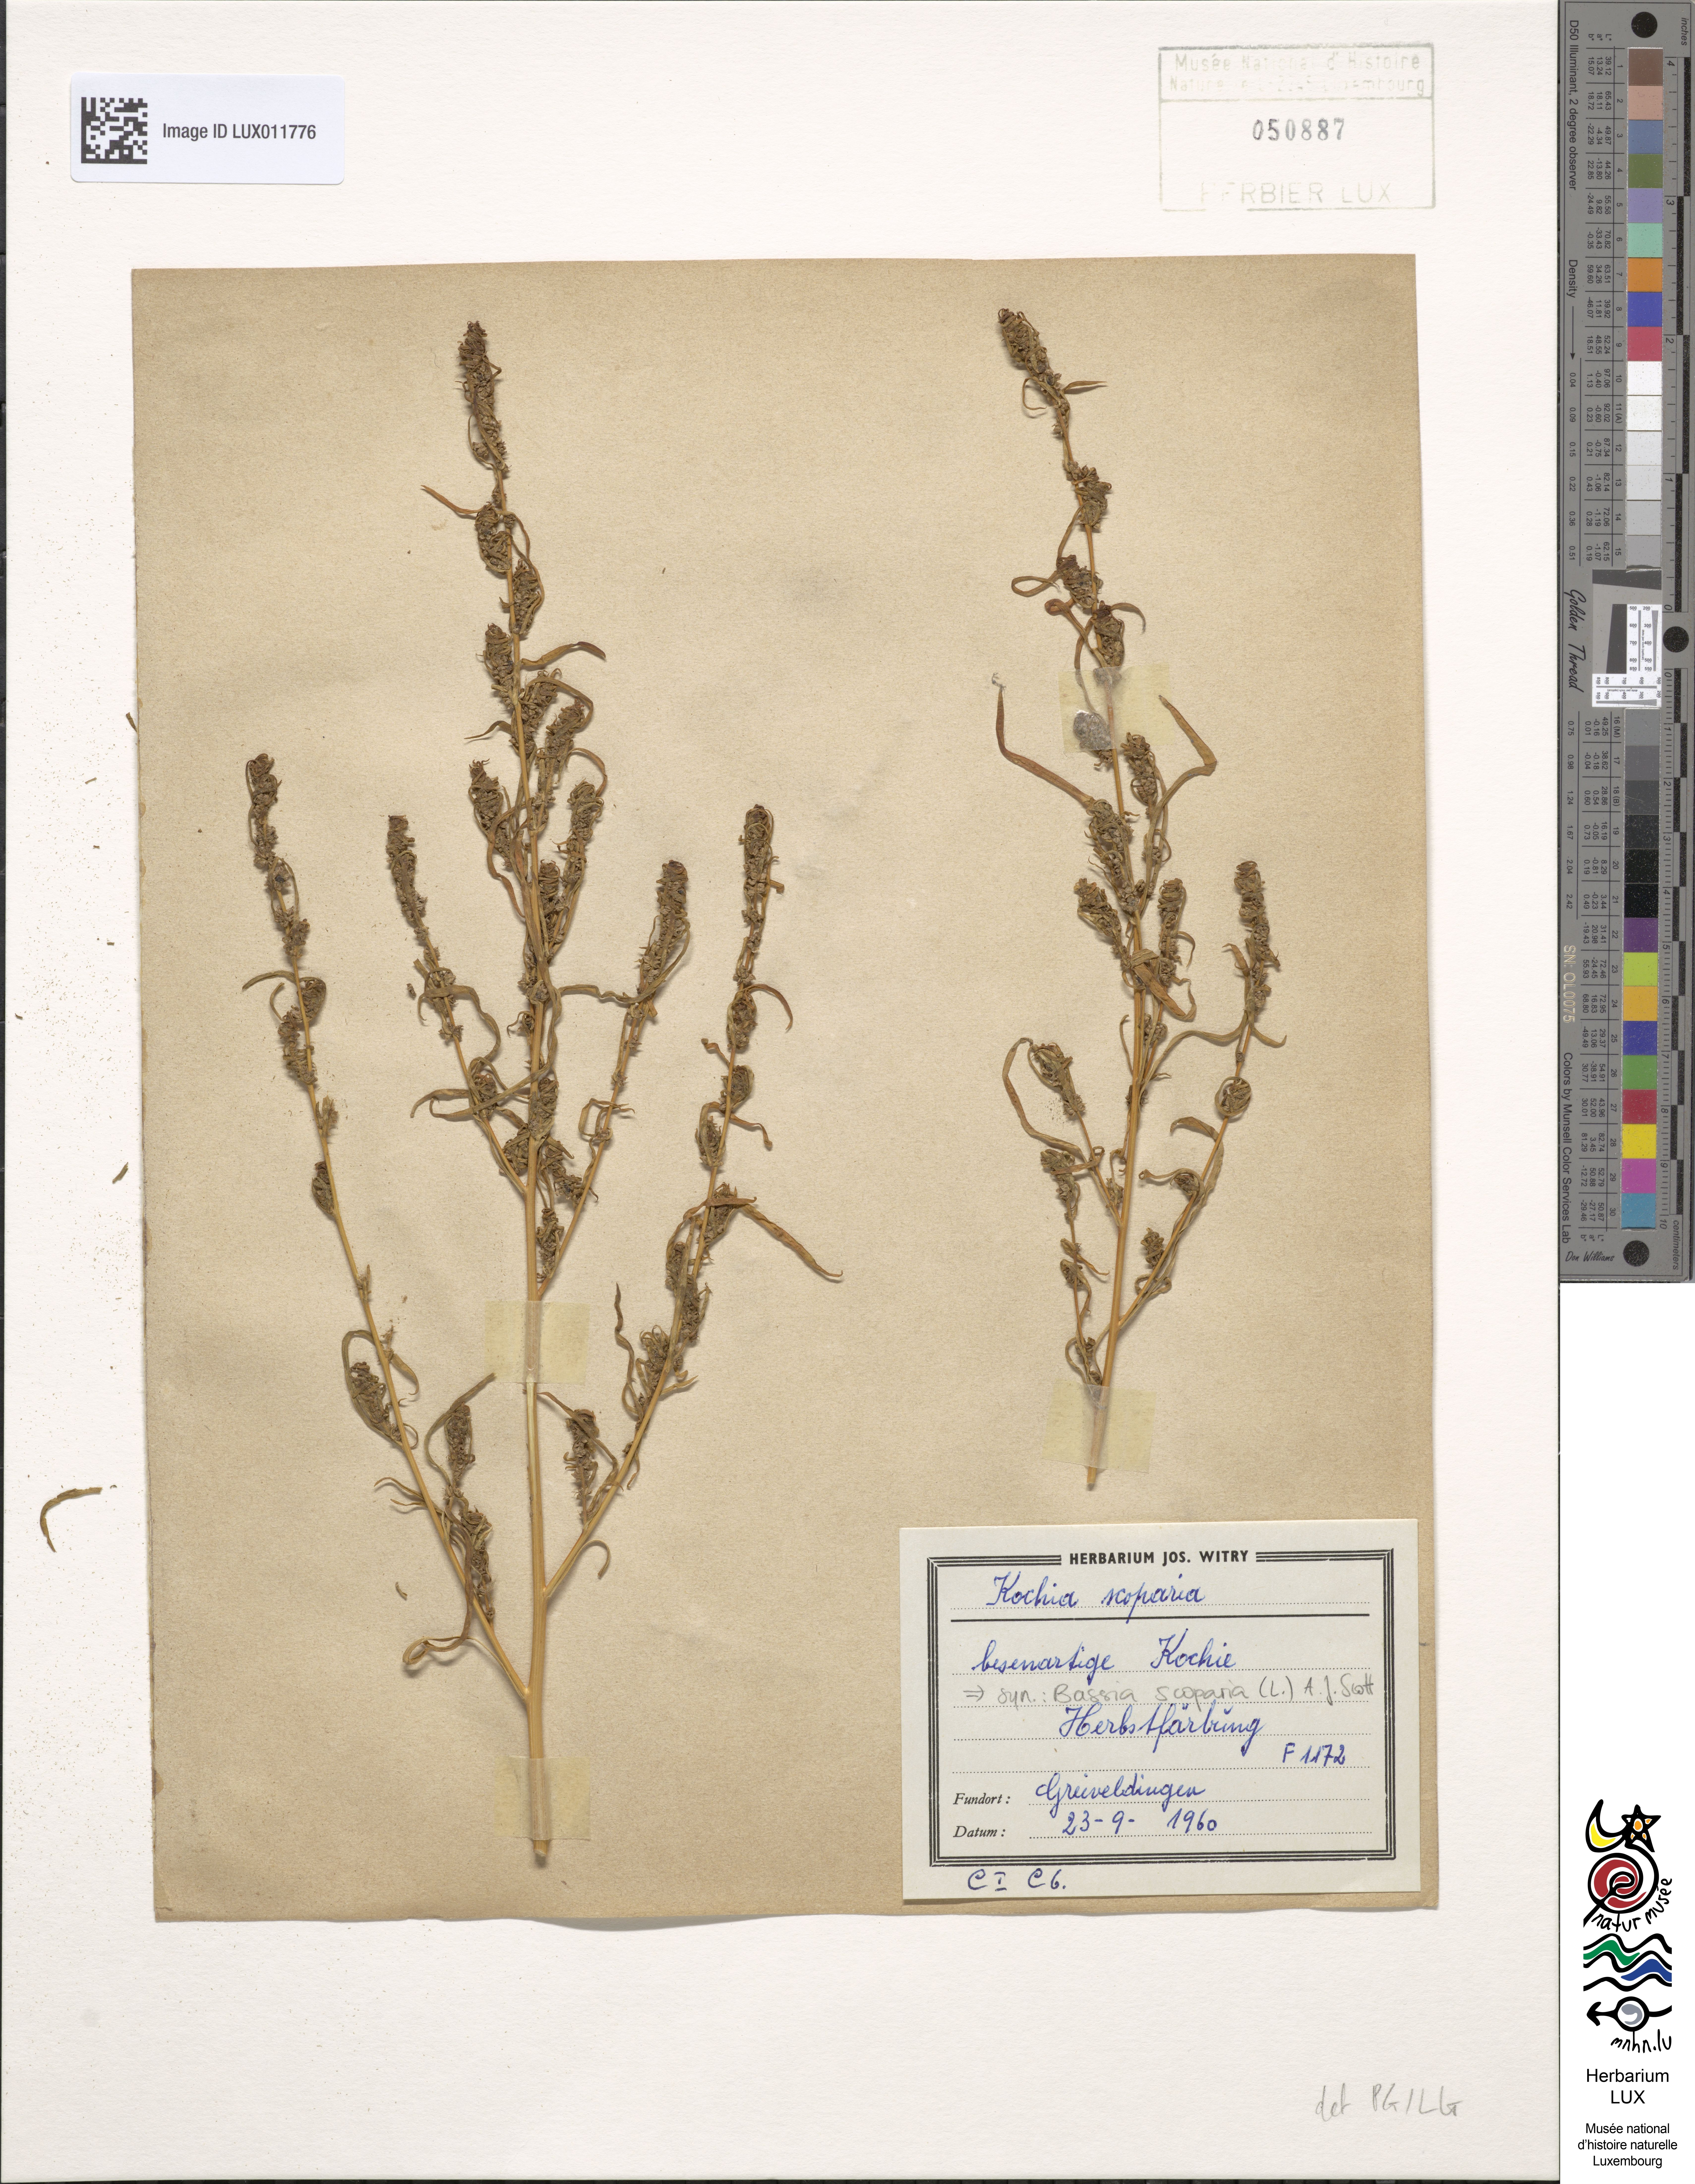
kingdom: Plantae
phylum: Tracheophyta
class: Magnoliopsida
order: Caryophyllales
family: Amaranthaceae
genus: Bassia
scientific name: Bassia scoparia
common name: Belvedere
